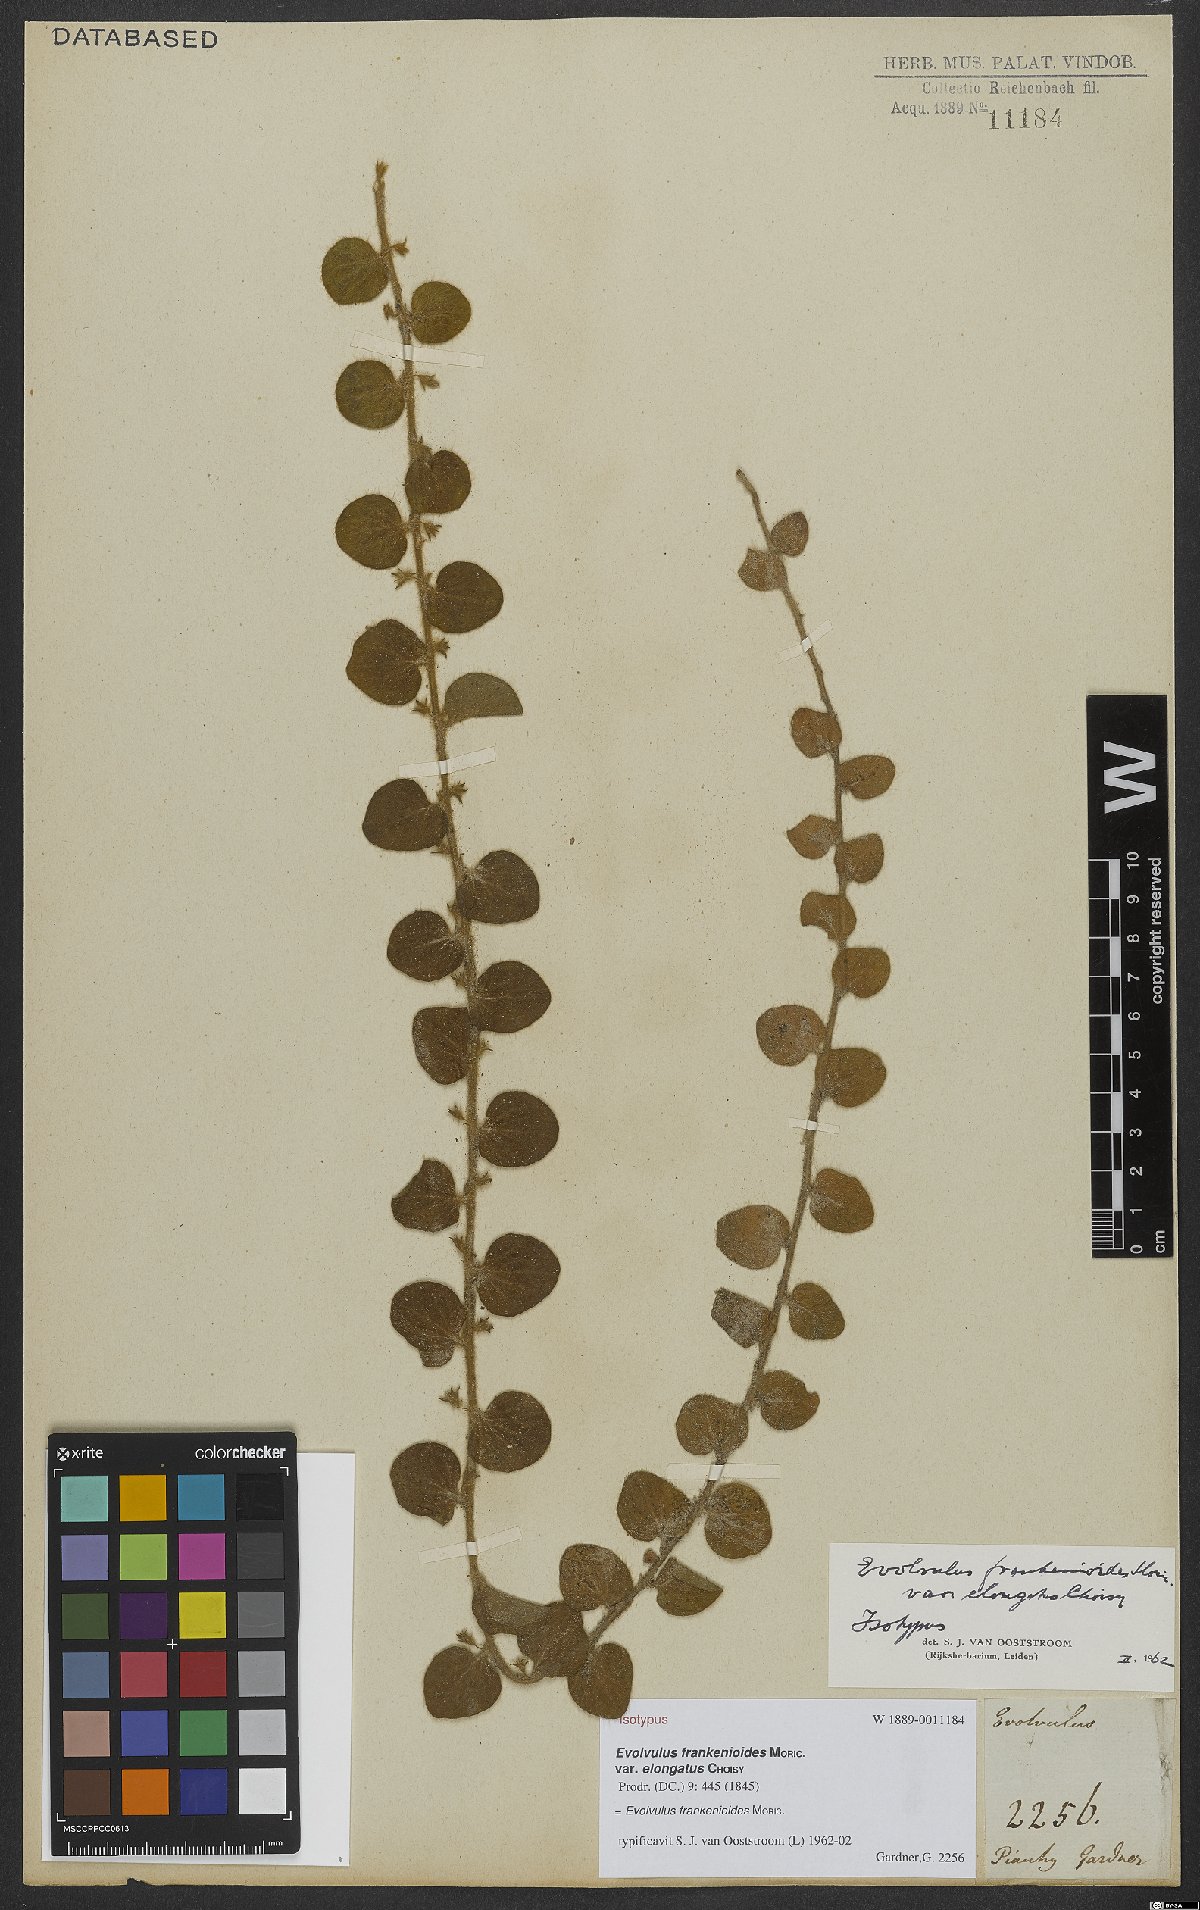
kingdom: Plantae
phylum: Tracheophyta
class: Magnoliopsida
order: Solanales
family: Convolvulaceae
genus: Evolvulus
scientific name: Evolvulus frankenioides
